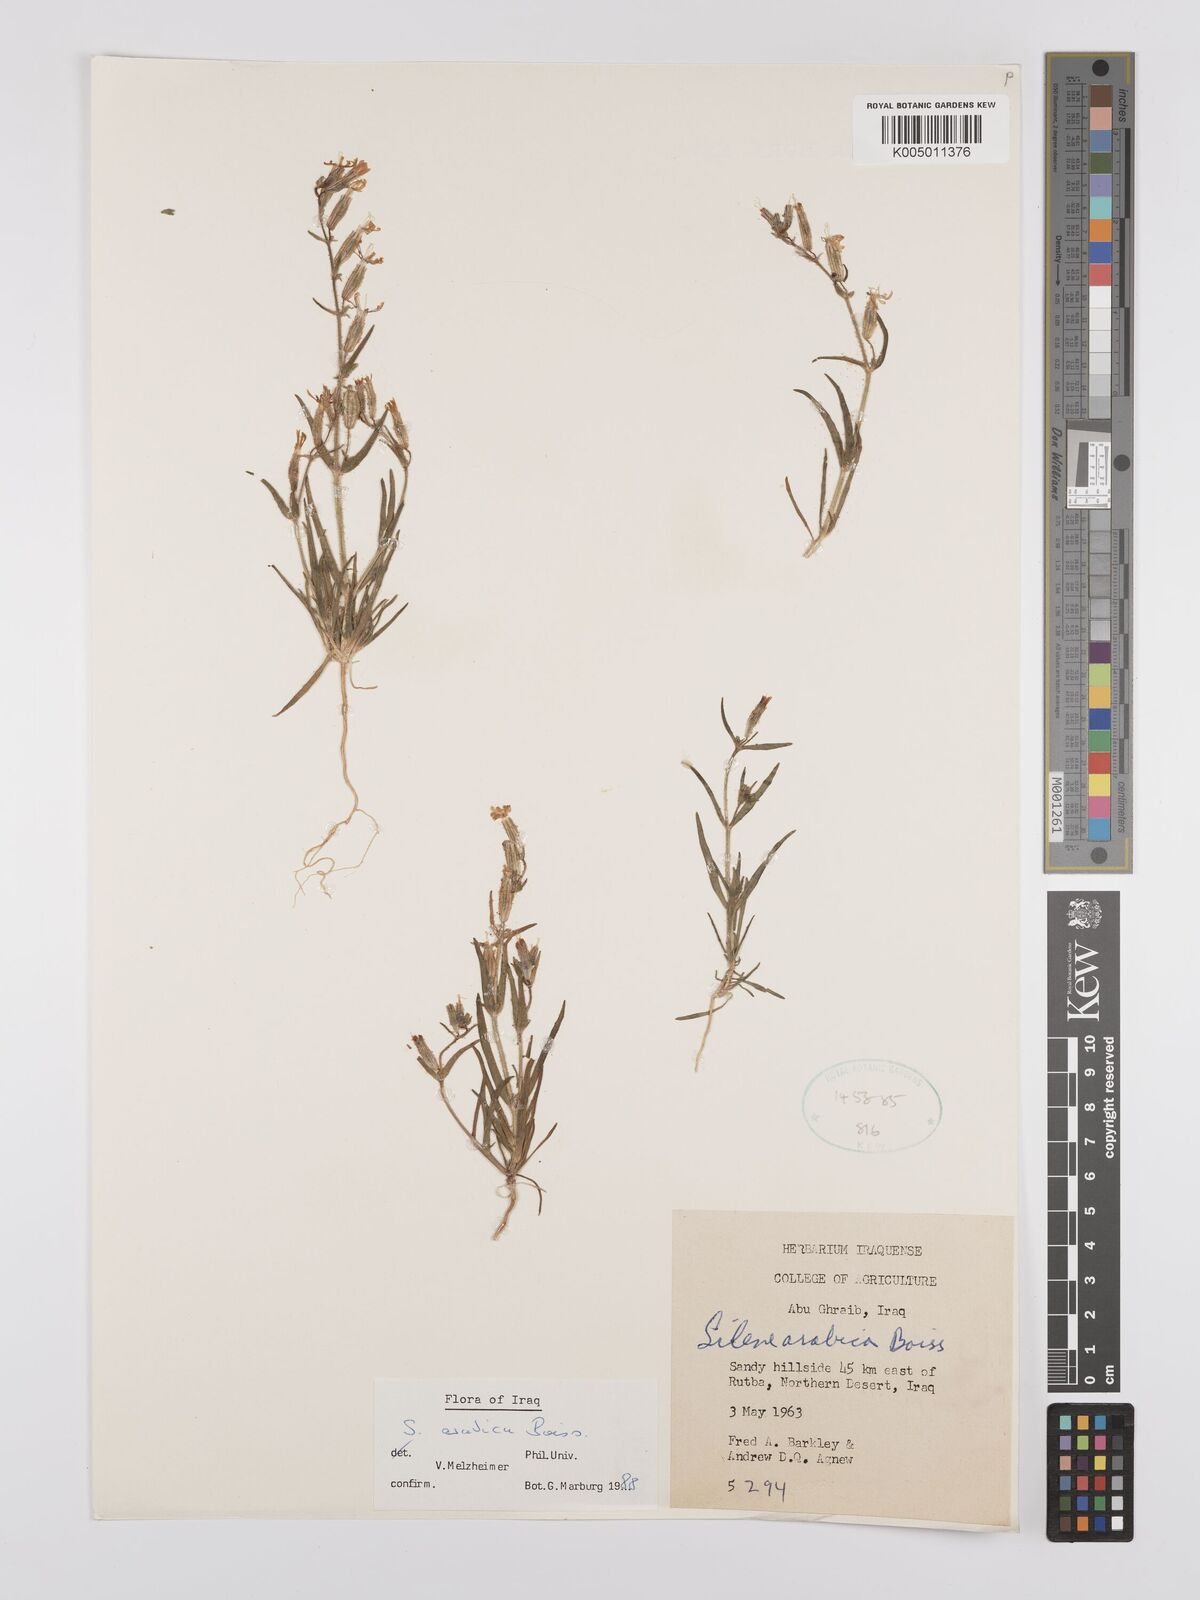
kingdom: Plantae
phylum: Tracheophyta
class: Magnoliopsida
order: Caryophyllales
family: Caryophyllaceae
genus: Silene
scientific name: Silene arabica
